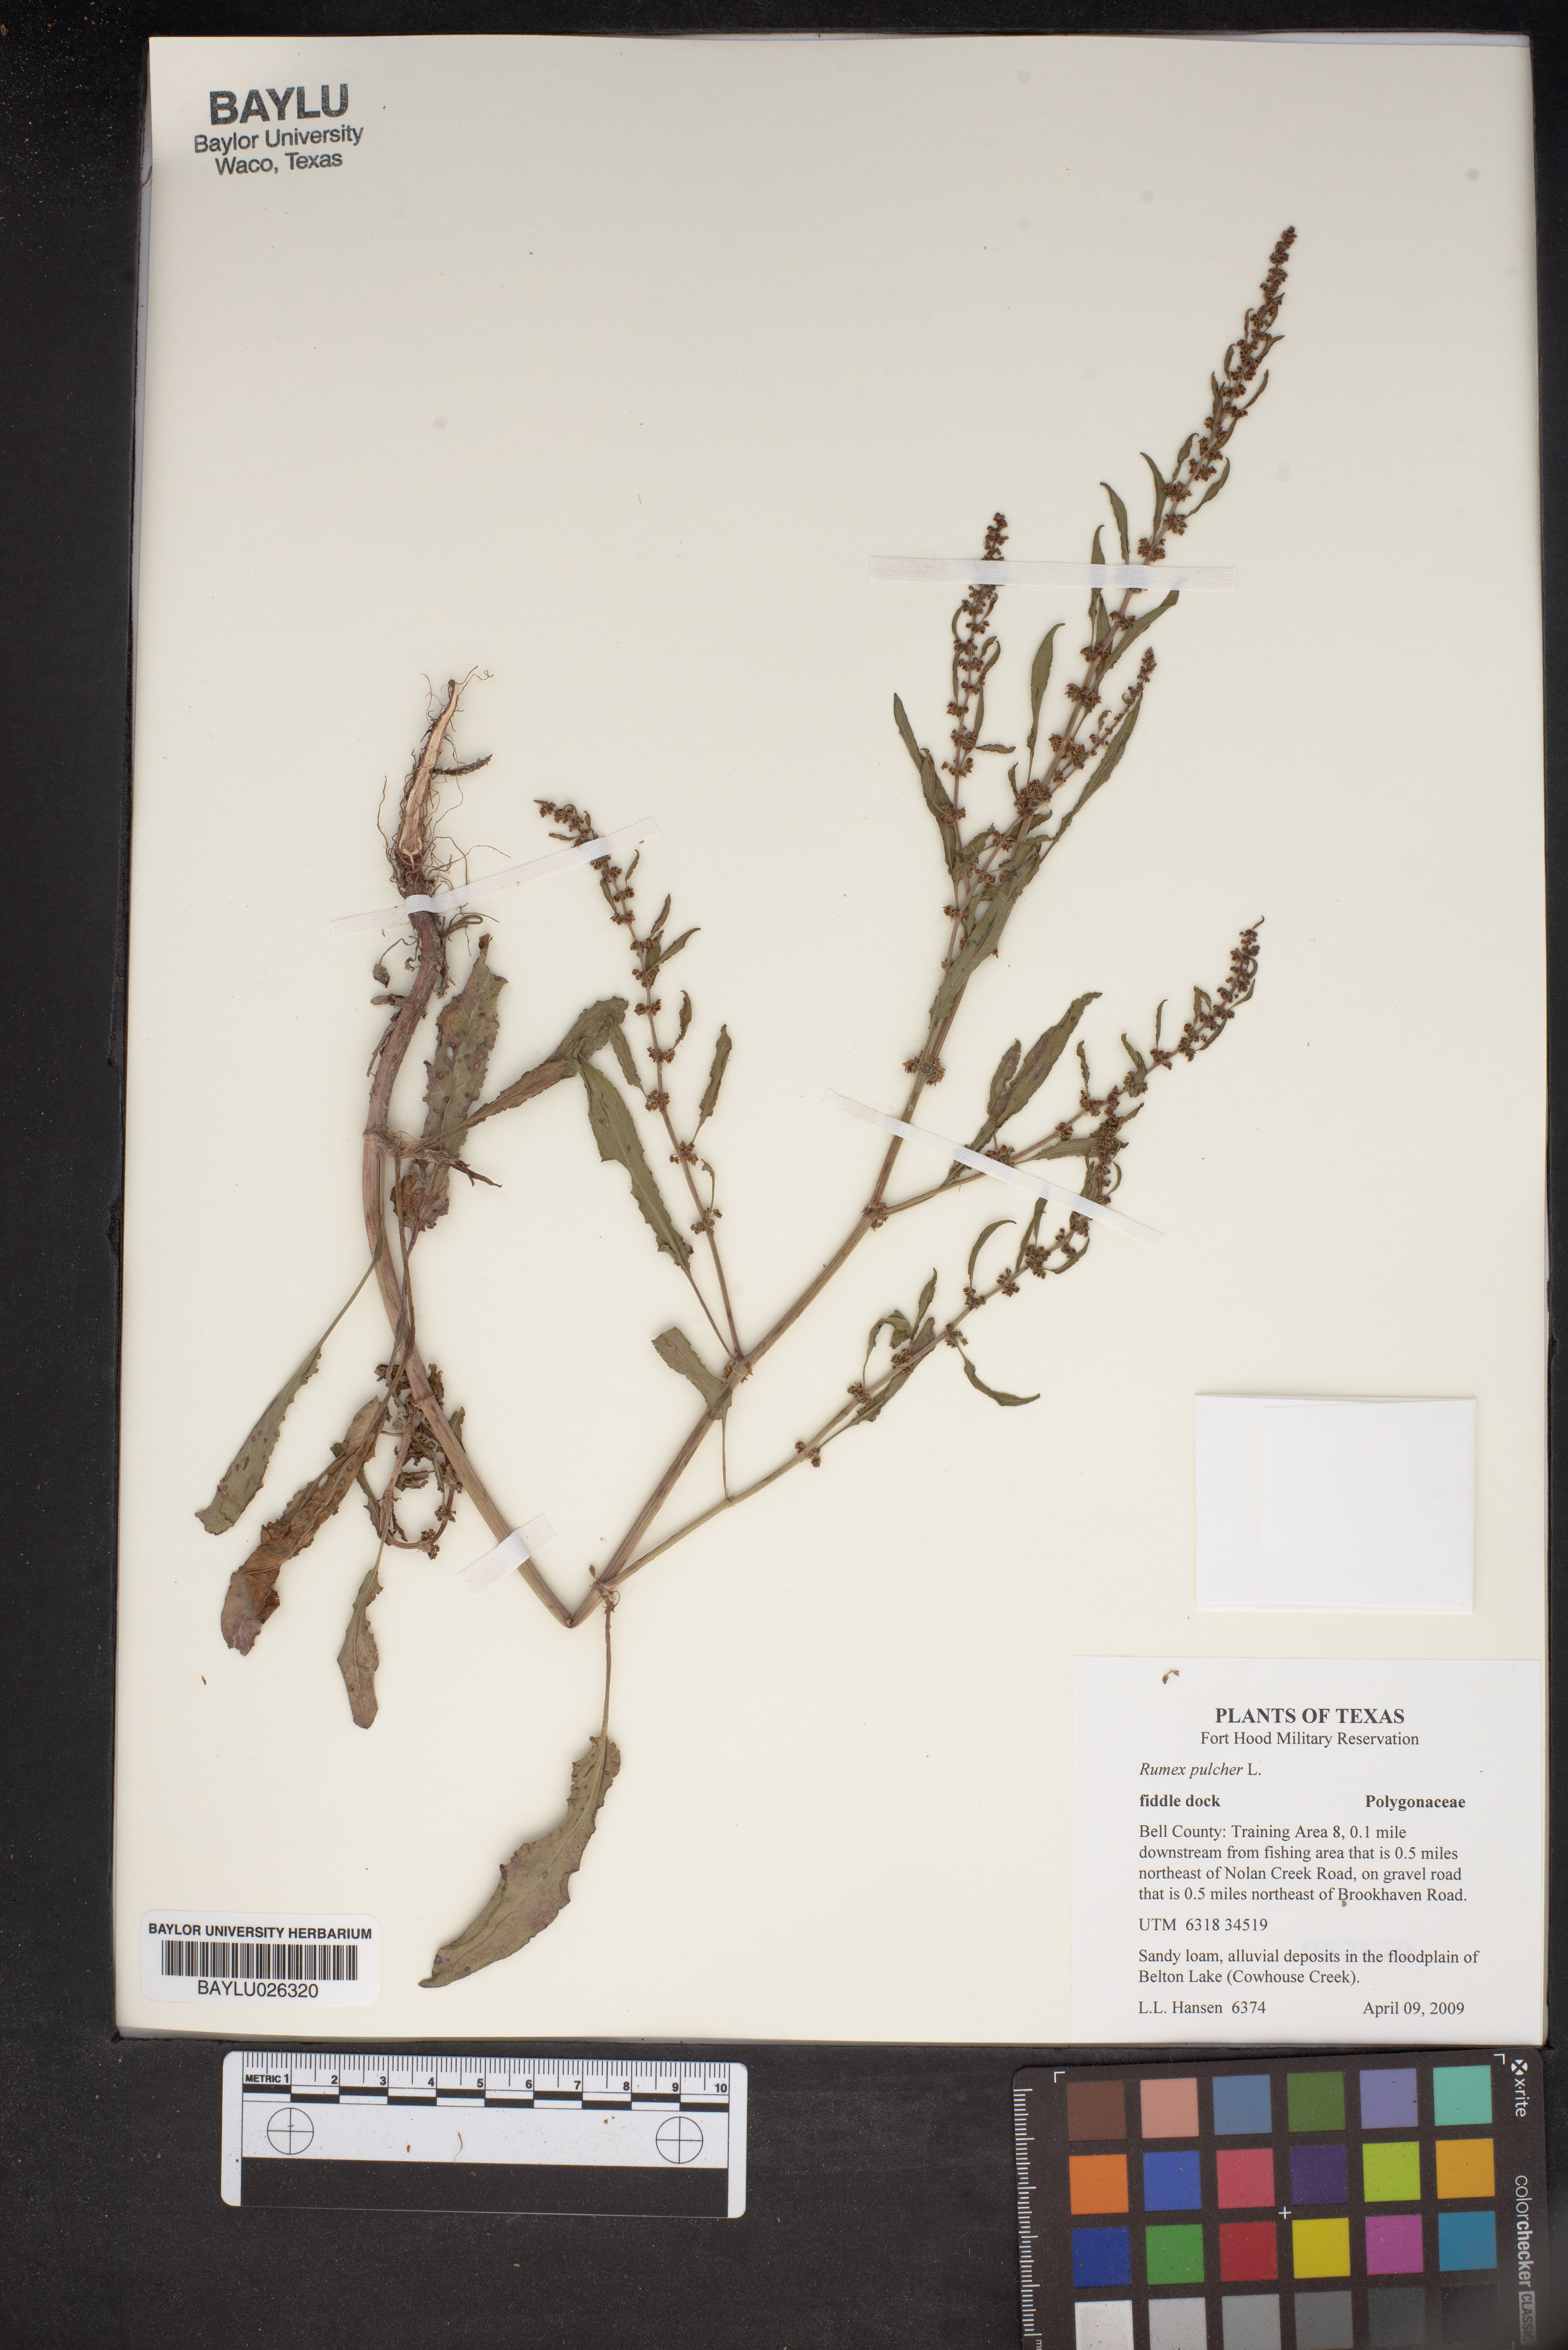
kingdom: Plantae
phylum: Tracheophyta
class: Magnoliopsida
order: Caryophyllales
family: Polygonaceae
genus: Rumex
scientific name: Rumex pulcher
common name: Fiddle dock
